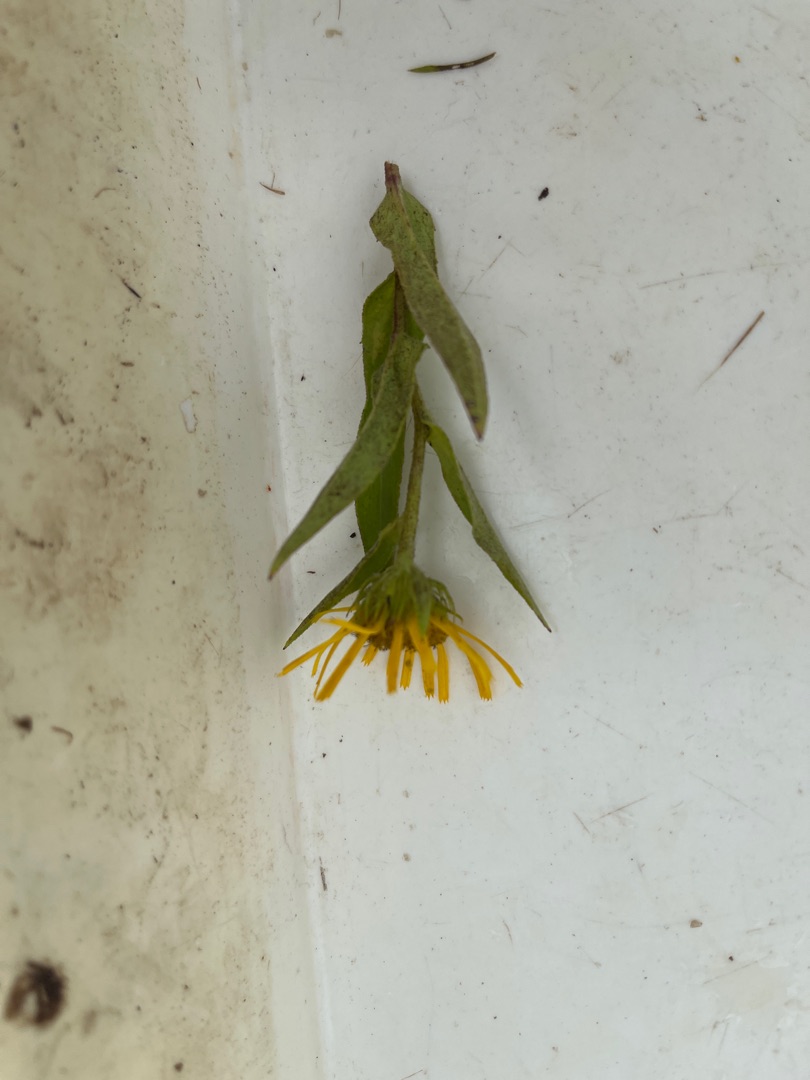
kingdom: Plantae
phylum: Tracheophyta
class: Magnoliopsida
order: Asterales
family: Asteraceae
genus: Pentanema
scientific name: Pentanema britannicum
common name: Soløje-alant
